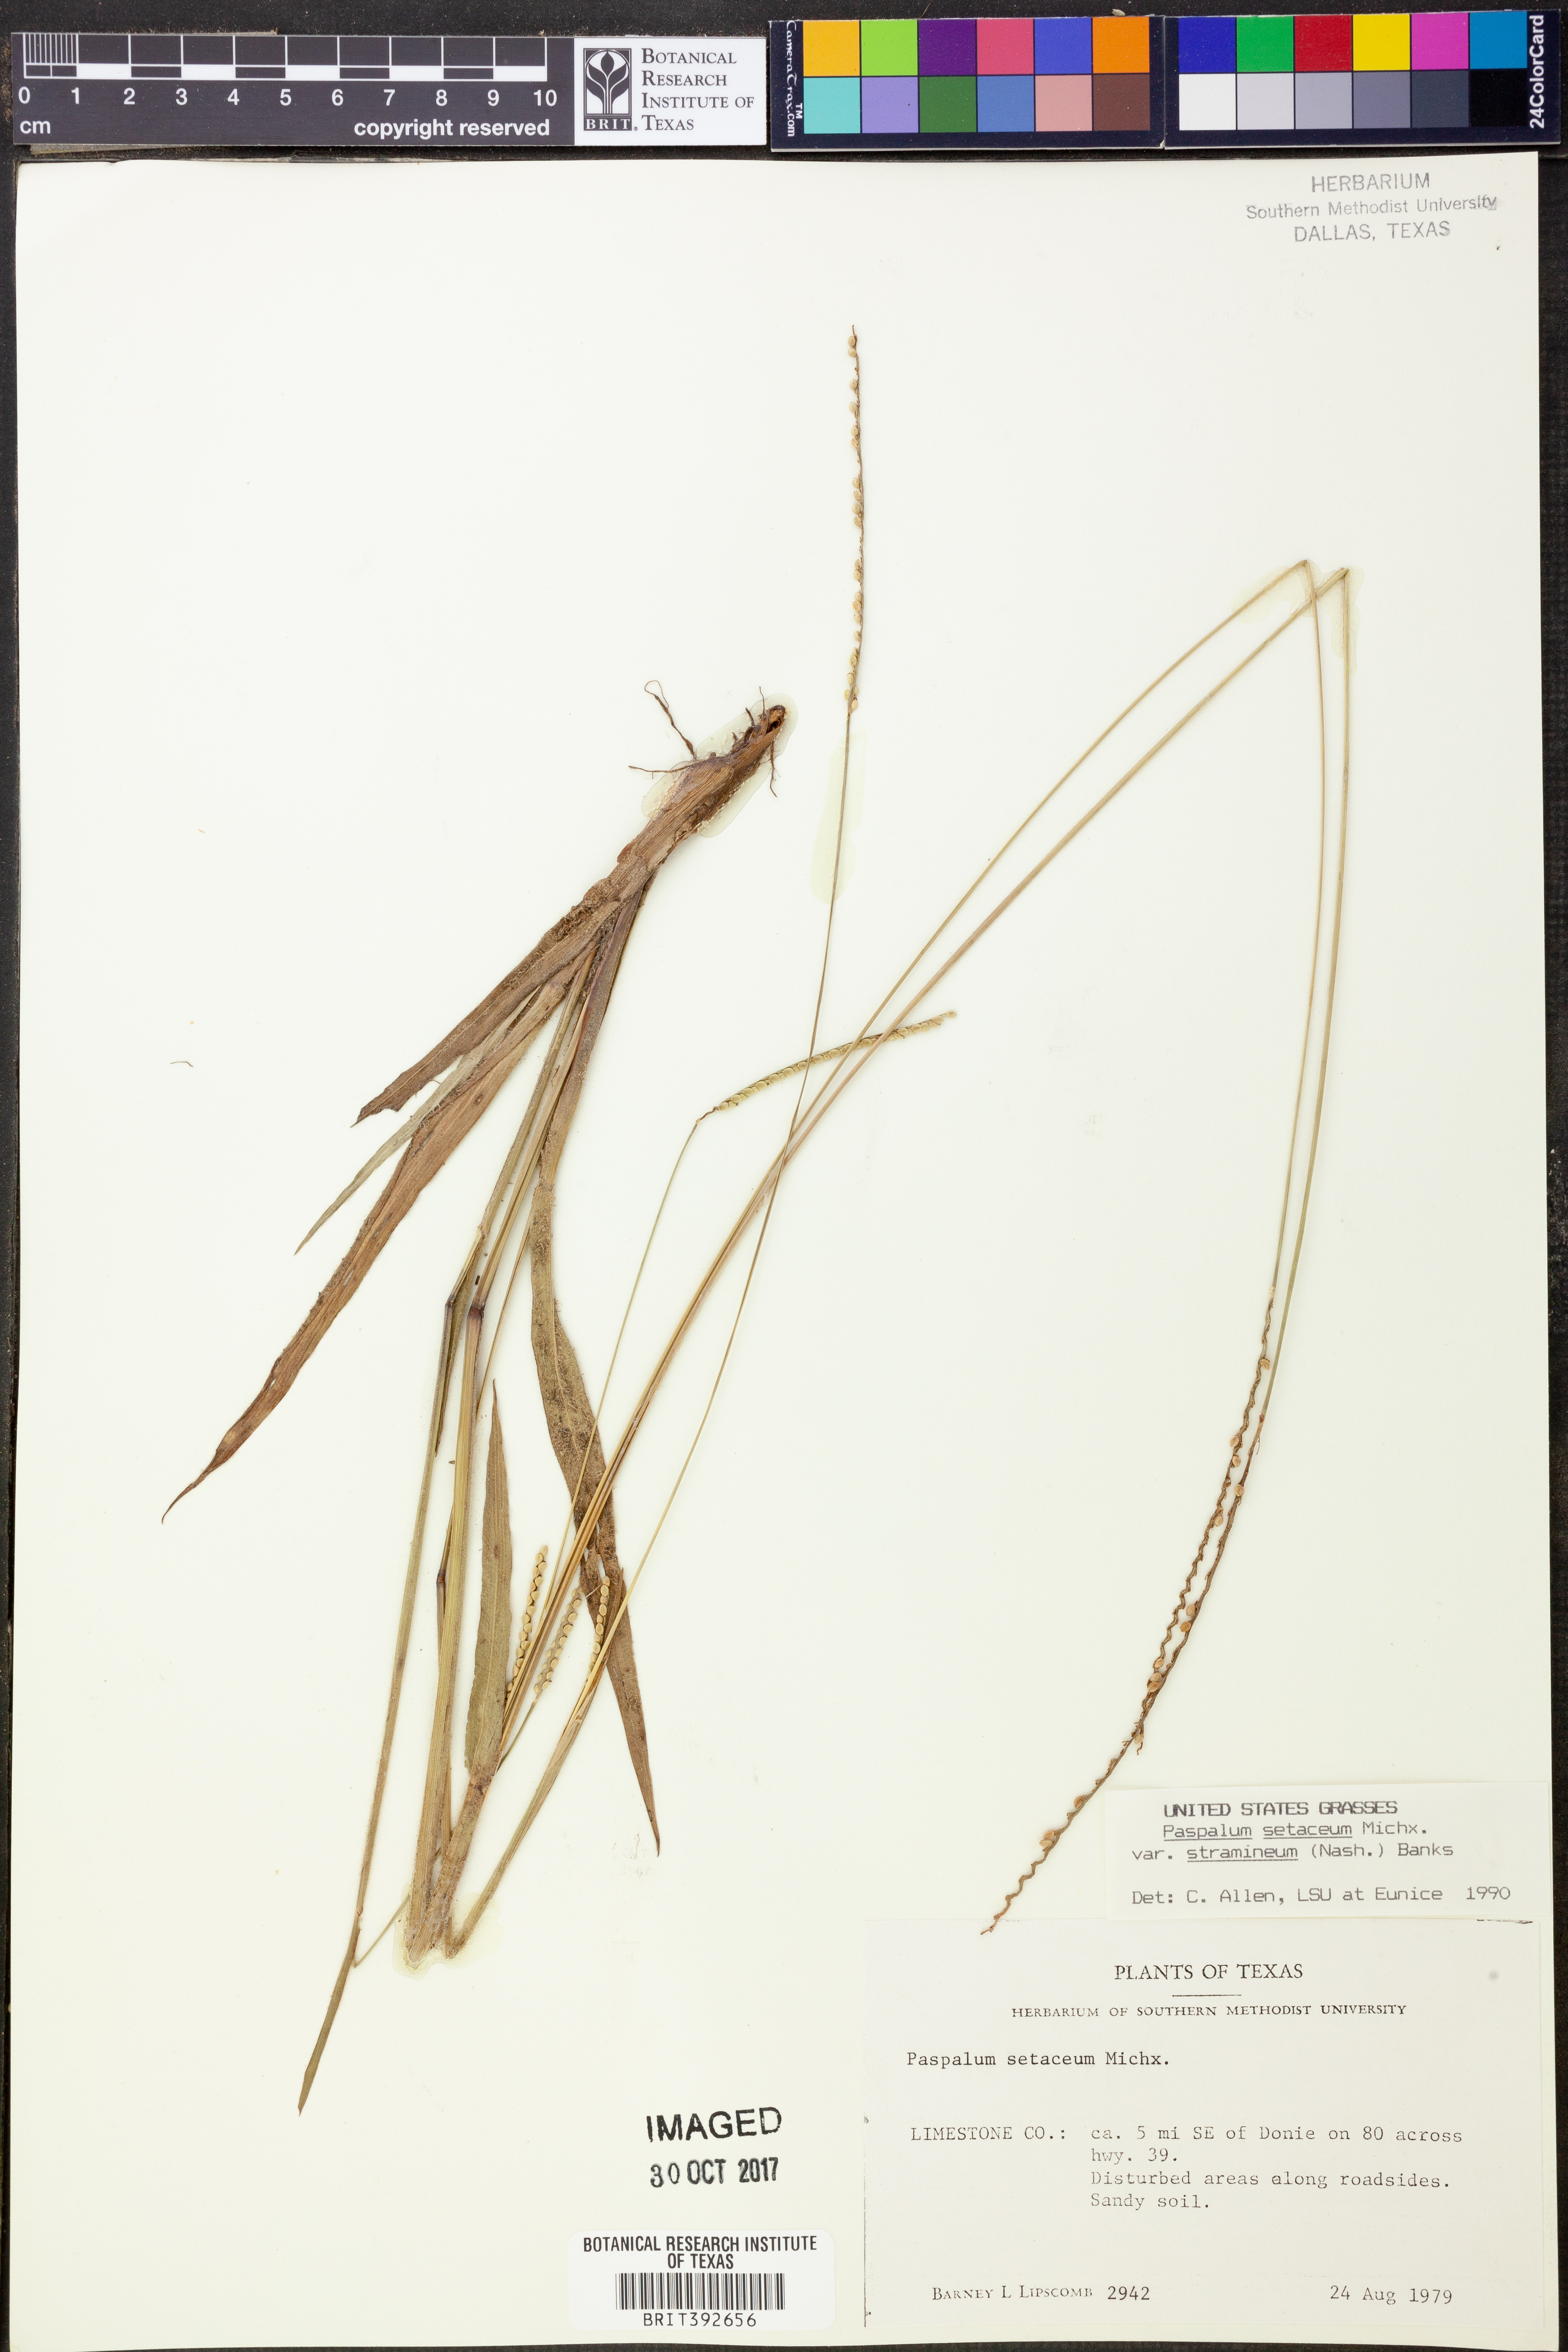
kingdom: Plantae
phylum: Tracheophyta
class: Liliopsida
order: Poales
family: Poaceae
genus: Paspalum
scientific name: Paspalum setaceum
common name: Slender paspalum
